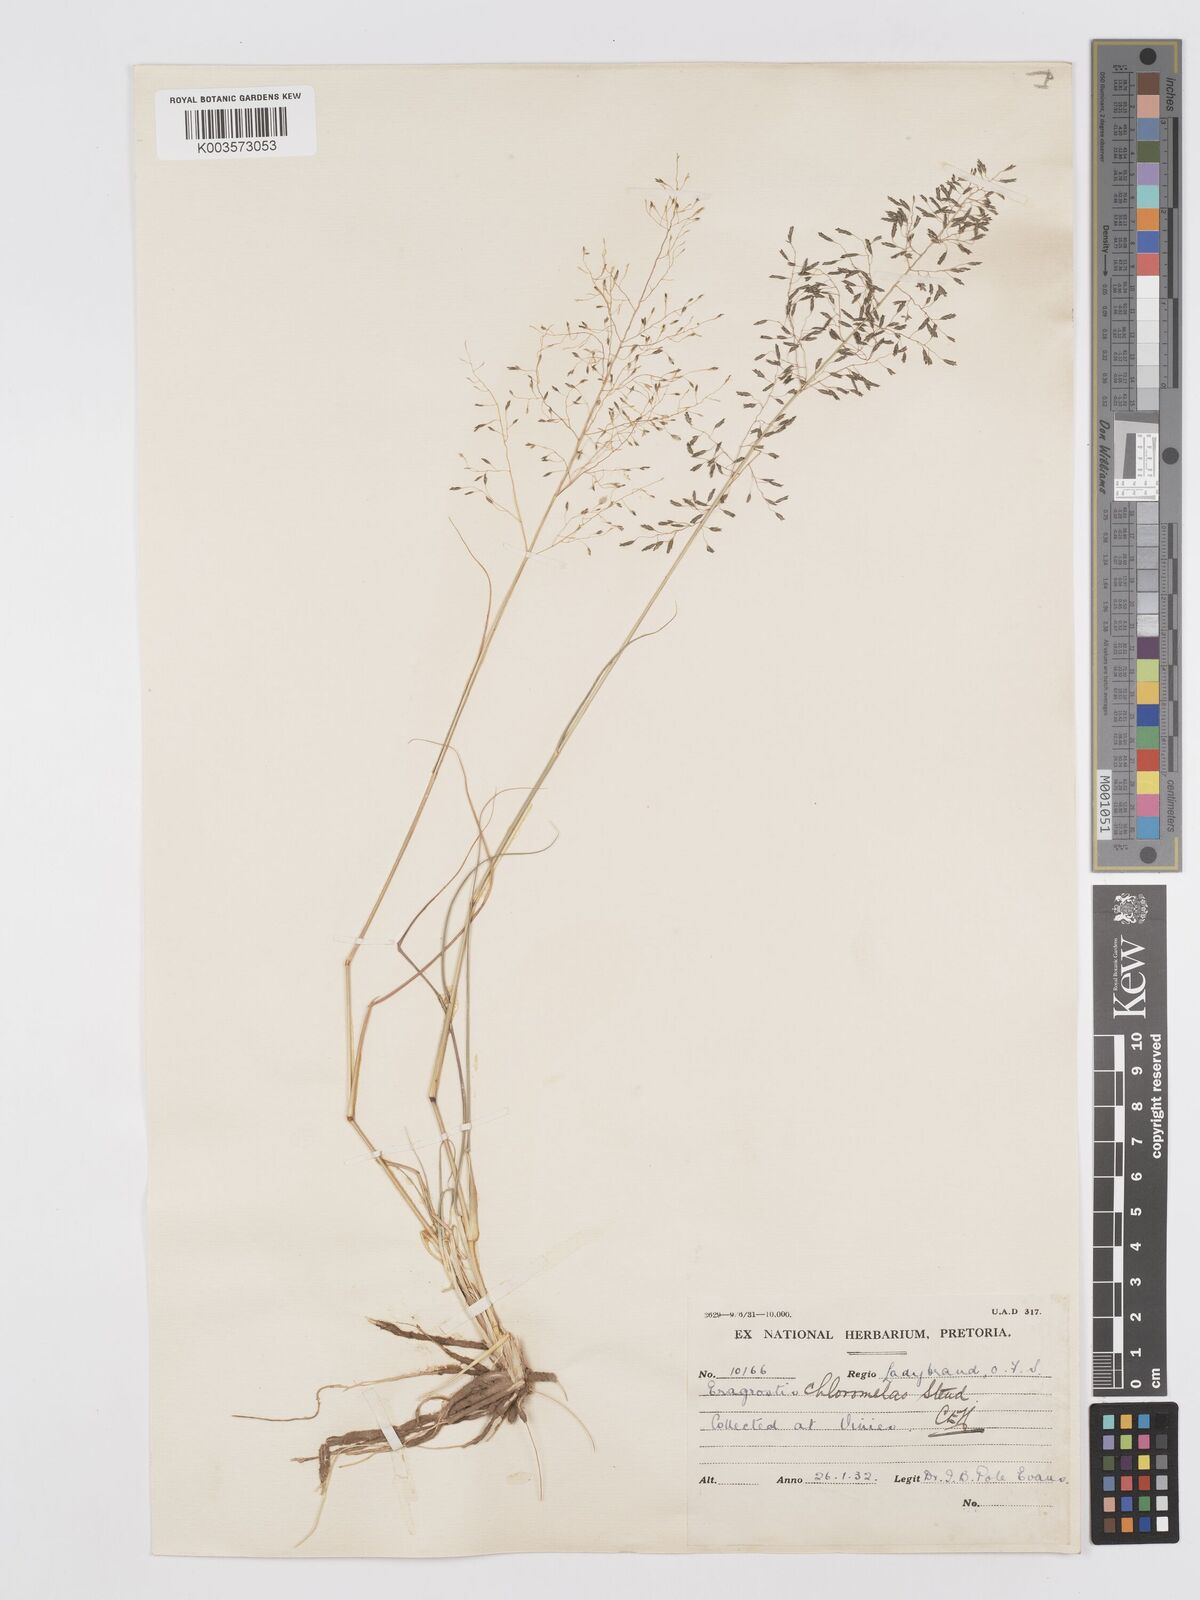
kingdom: Plantae
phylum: Tracheophyta
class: Liliopsida
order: Poales
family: Poaceae
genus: Eragrostis
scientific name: Eragrostis curvula
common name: African love-grass
